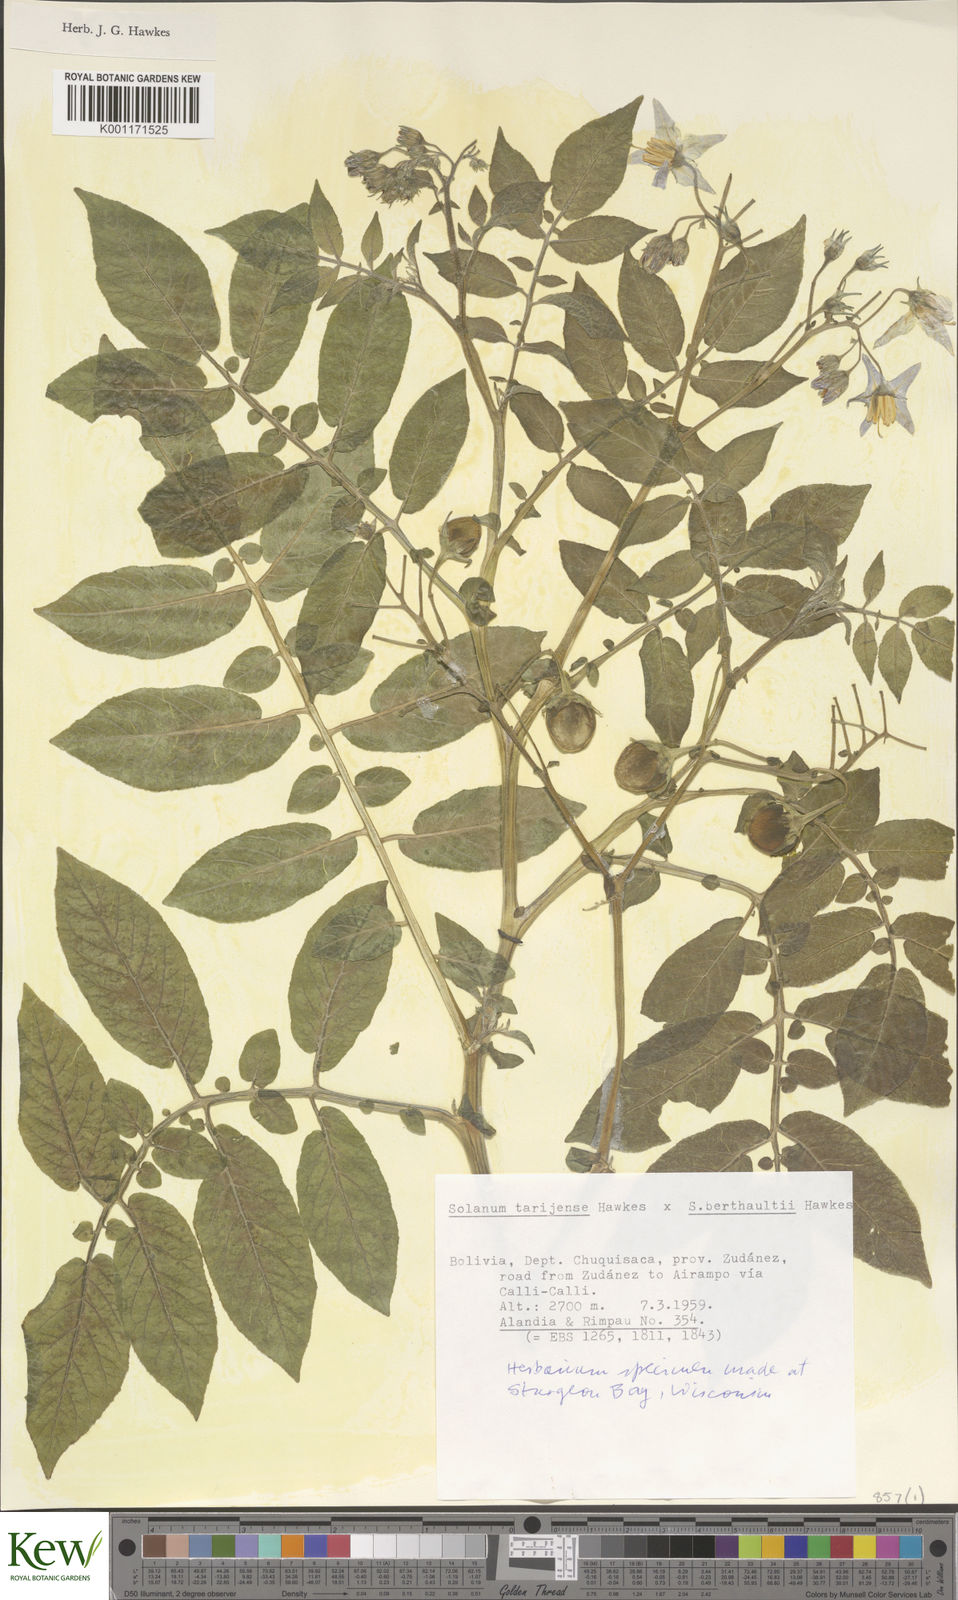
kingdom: Plantae
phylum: Tracheophyta
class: Magnoliopsida
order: Solanales
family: Solanaceae
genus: Solanum
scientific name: Solanum tarijense
